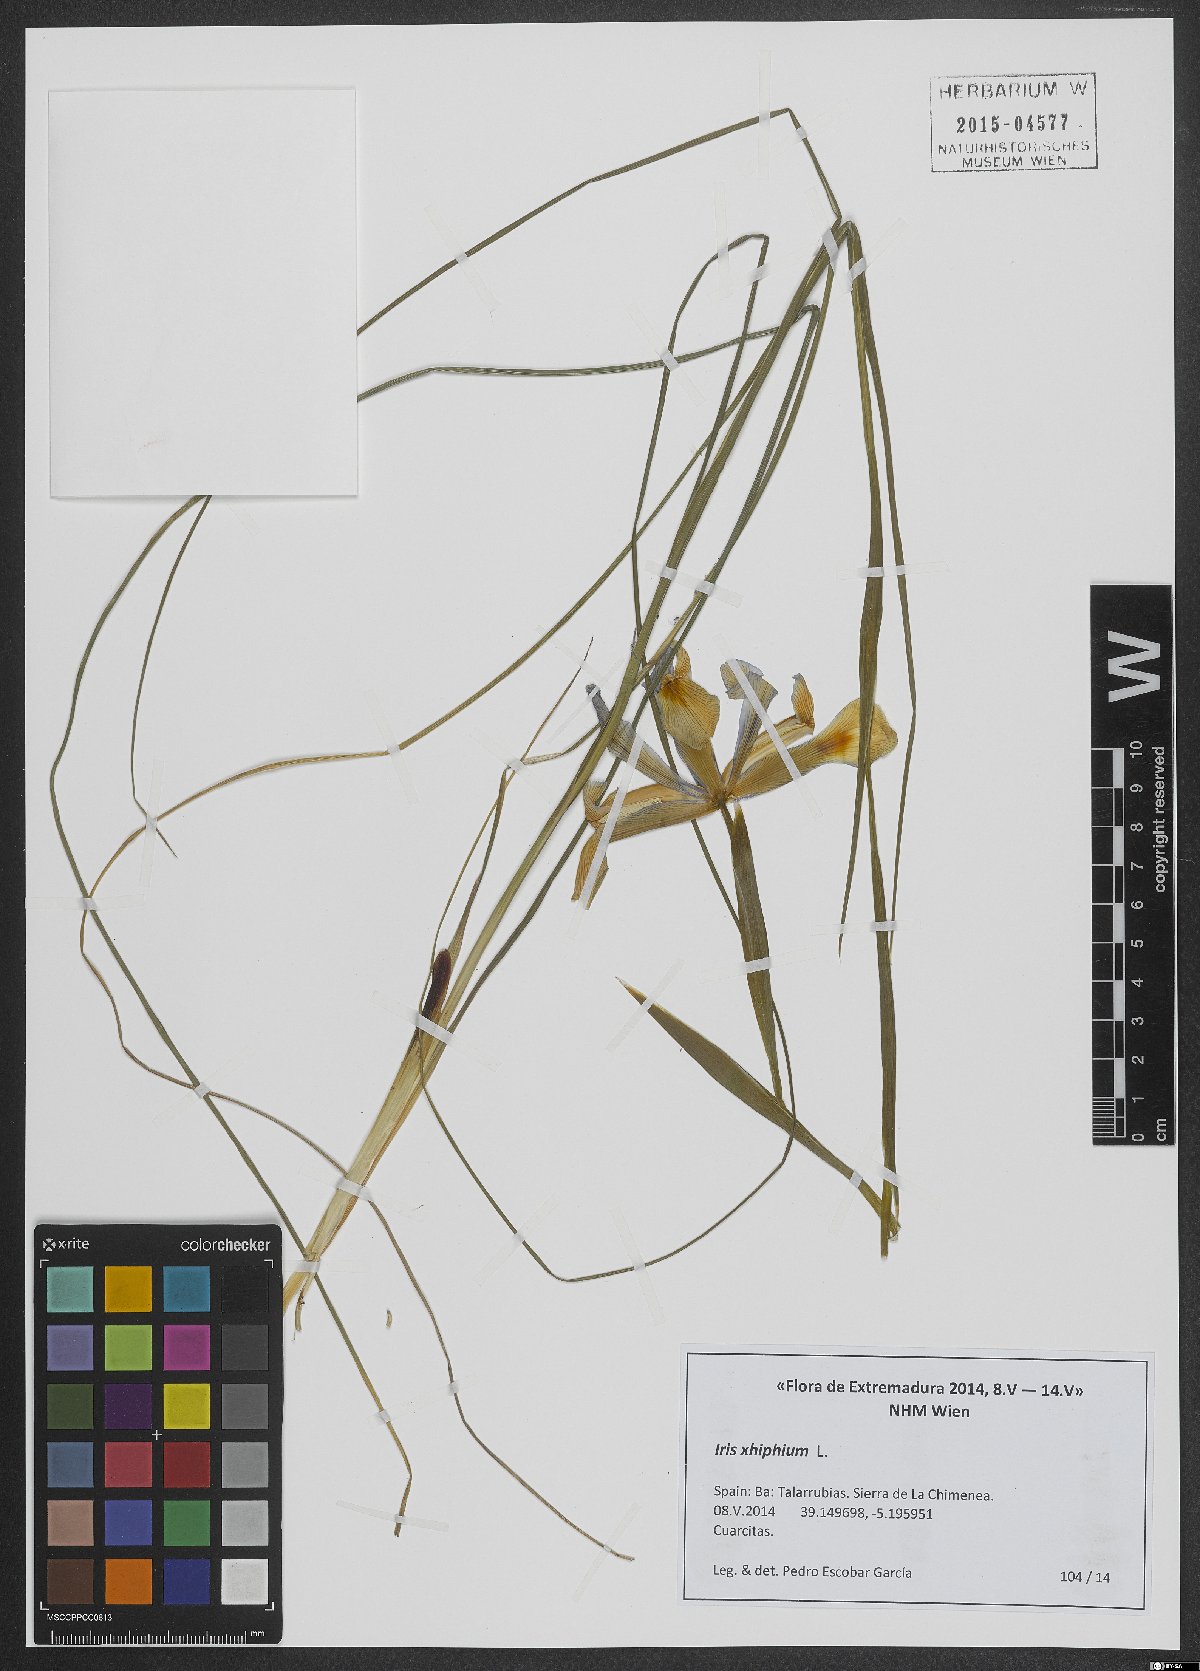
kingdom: Plantae
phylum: Tracheophyta
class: Liliopsida
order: Asparagales
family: Iridaceae
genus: Iris
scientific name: Iris xiphium
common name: Spanish iris
